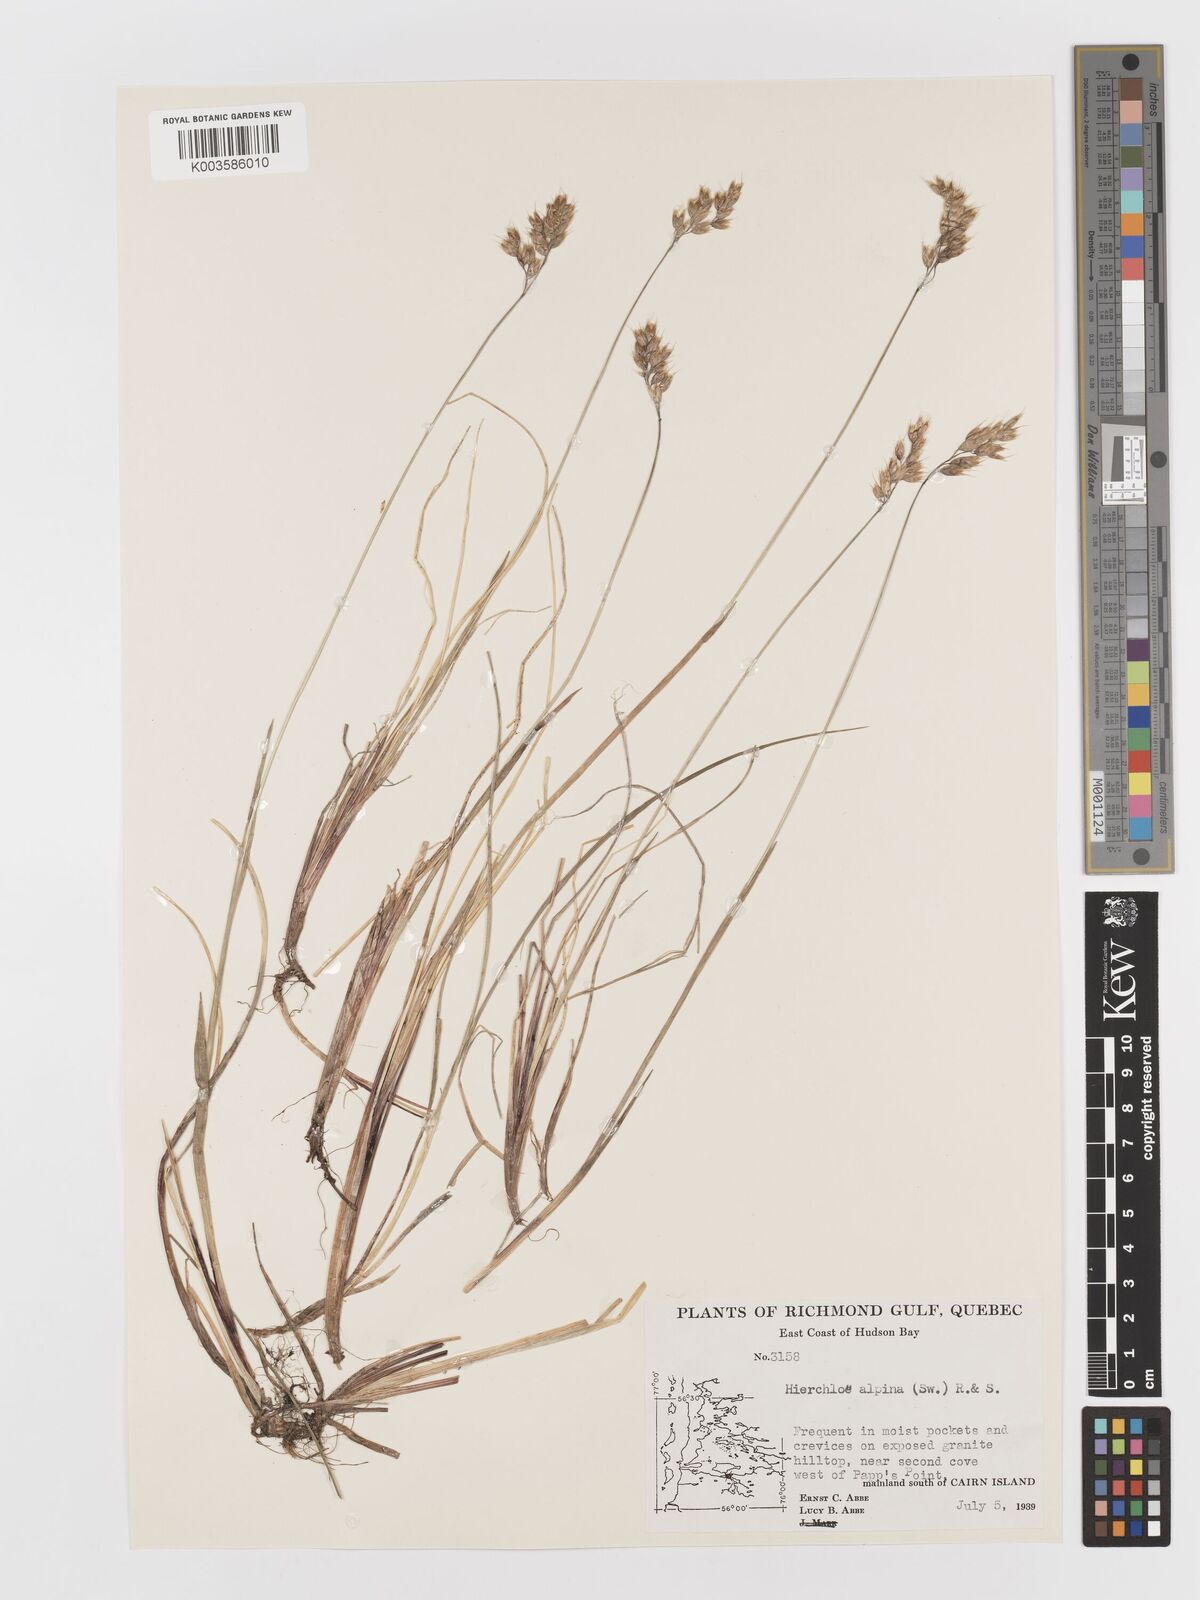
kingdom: Plantae
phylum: Tracheophyta
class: Liliopsida
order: Poales
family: Poaceae
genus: Anthoxanthum
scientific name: Anthoxanthum monticola
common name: Alpine sweetgrass
